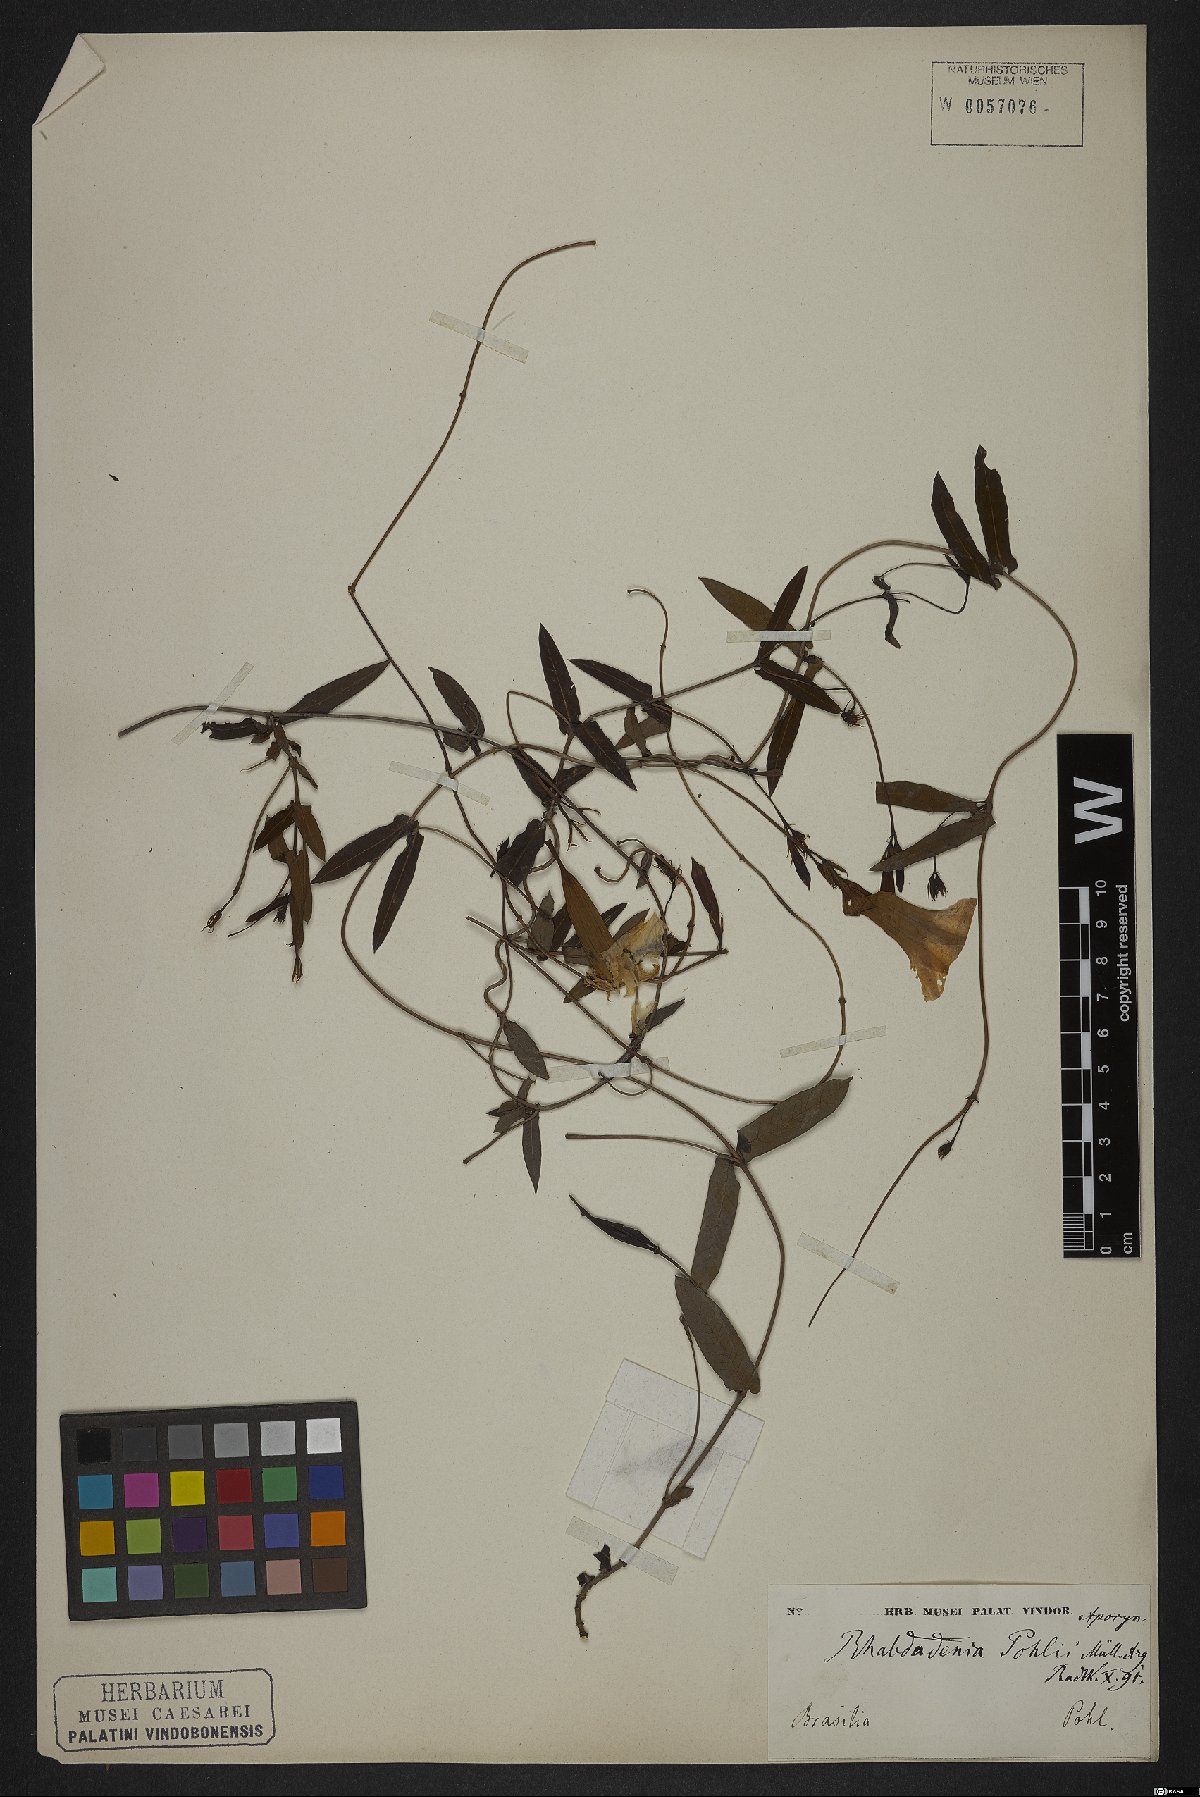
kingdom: Plantae
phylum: Tracheophyta
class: Magnoliopsida
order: Gentianales
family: Apocynaceae
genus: Rhabdadenia
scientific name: Rhabdadenia madida
